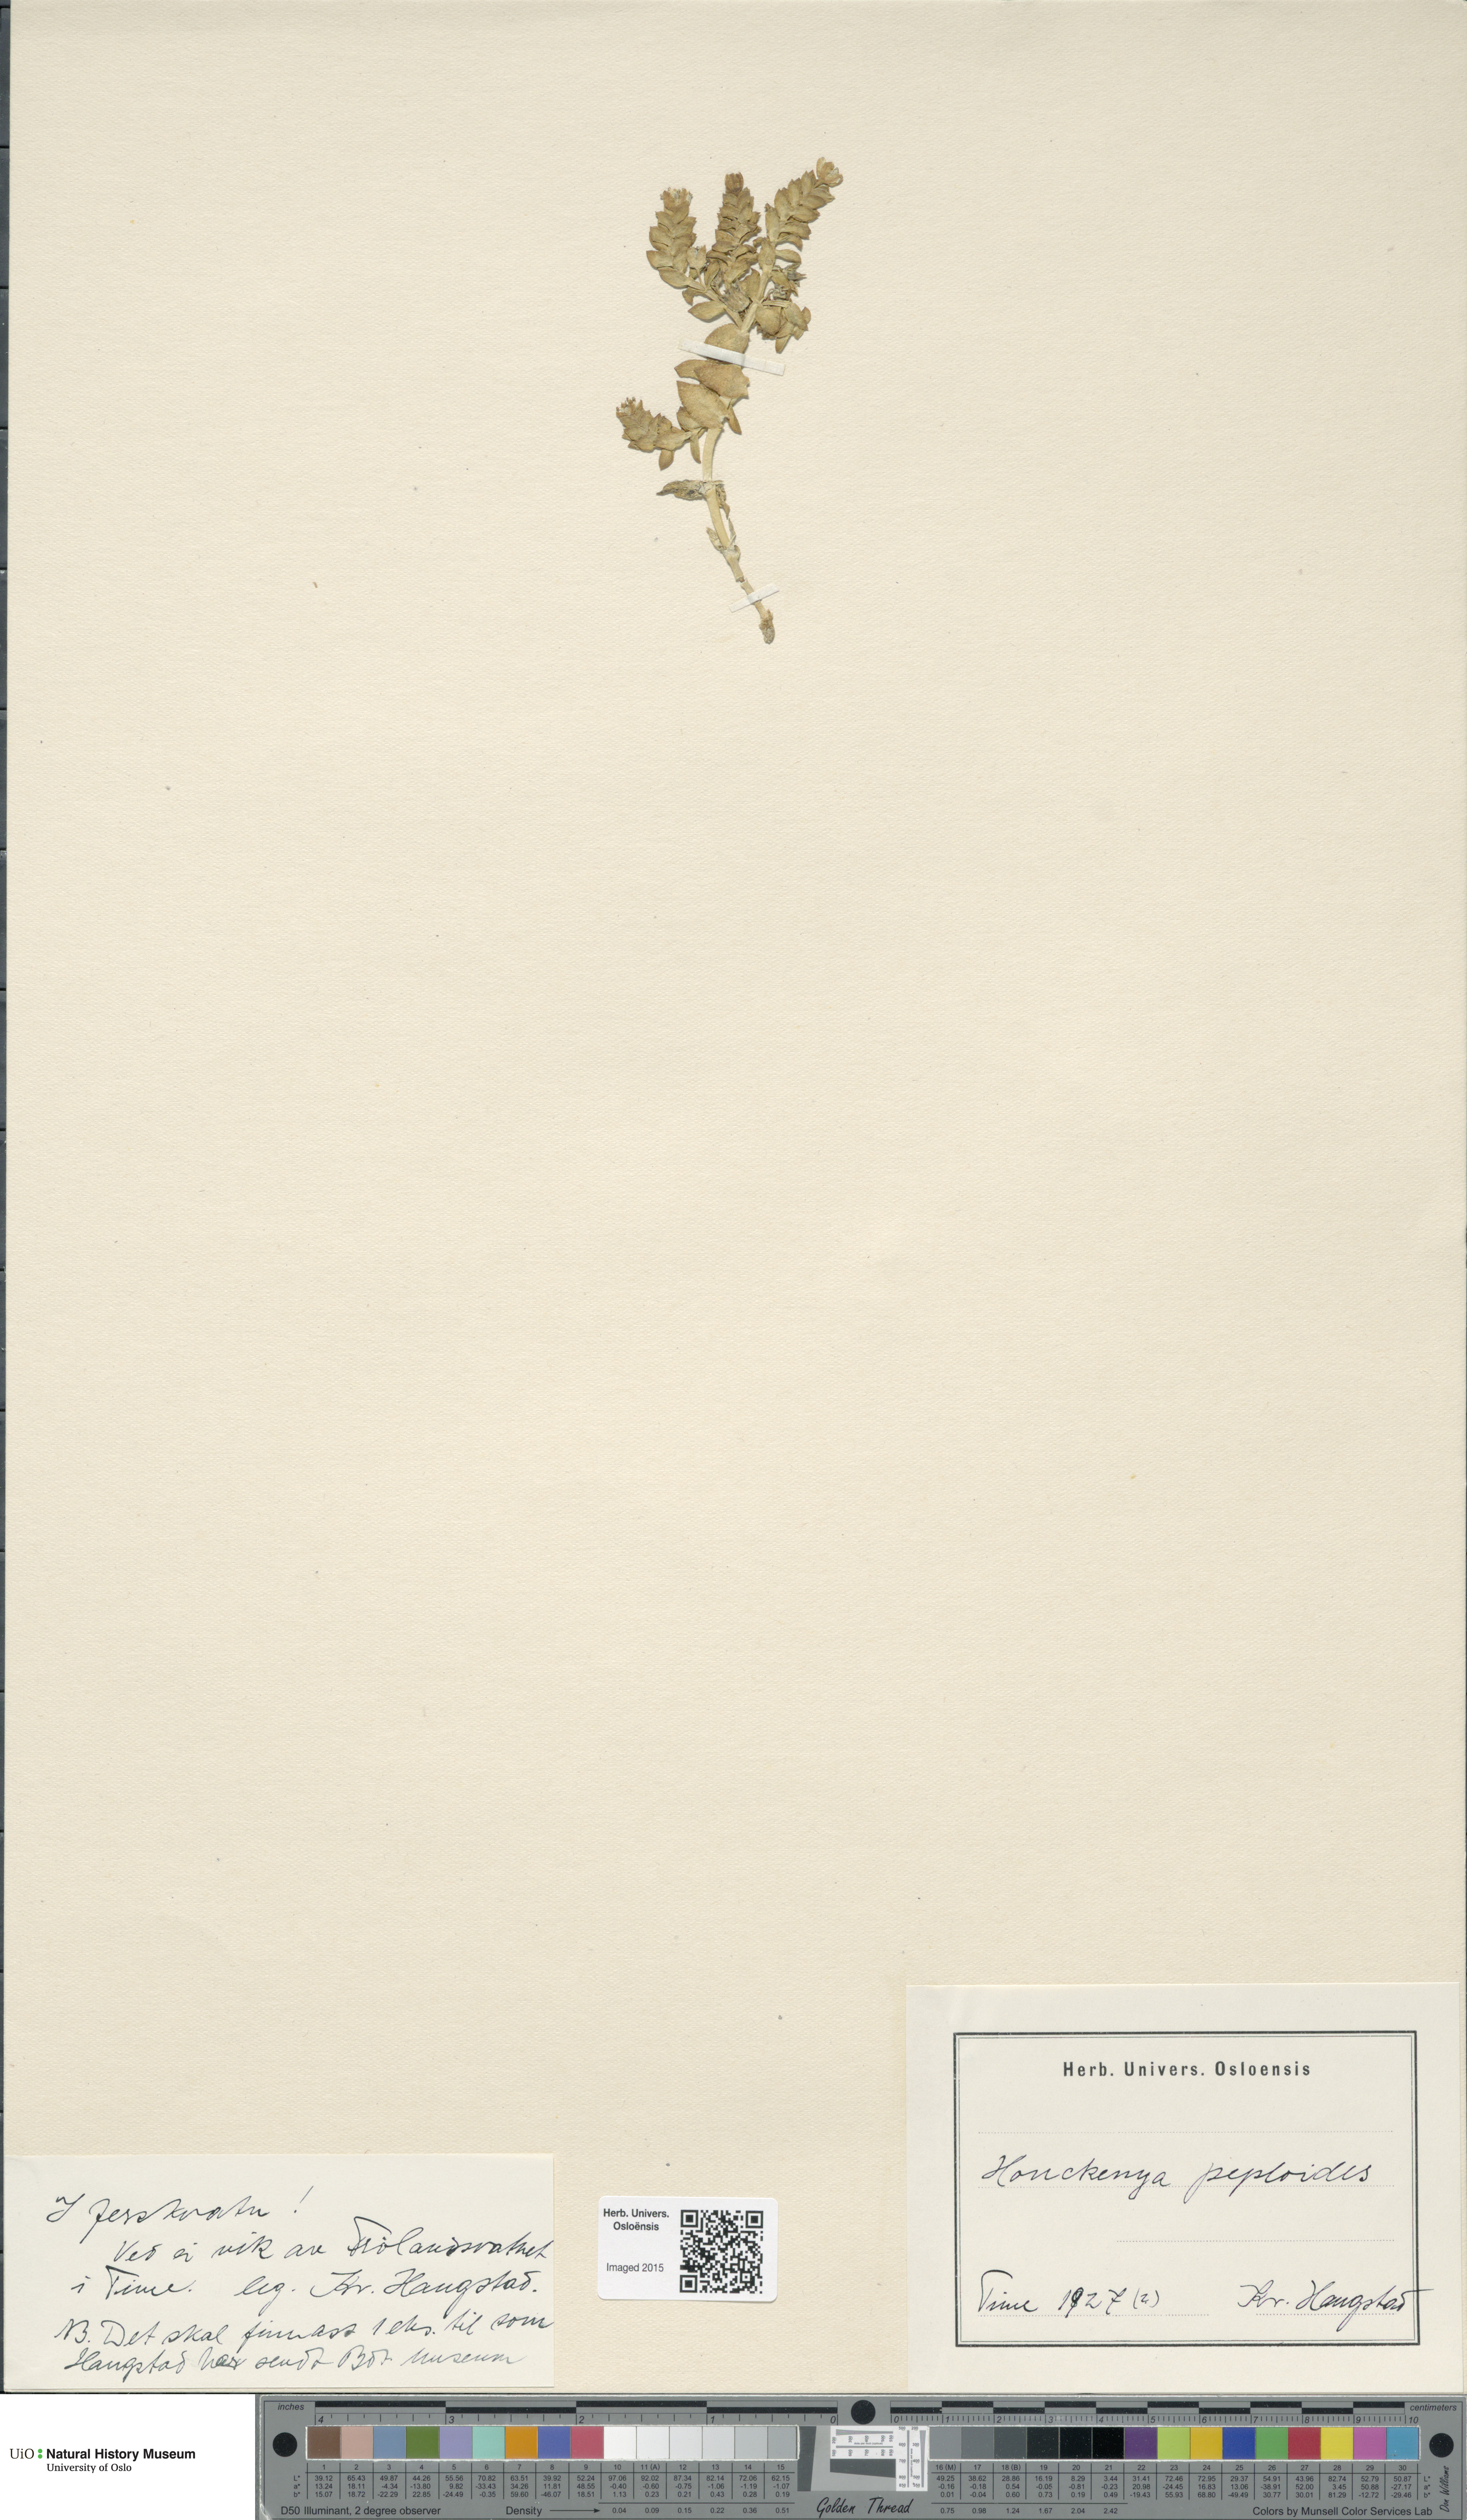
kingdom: Plantae
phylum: Tracheophyta
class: Magnoliopsida
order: Caryophyllales
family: Caryophyllaceae
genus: Honckenya
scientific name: Honckenya peploides
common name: Sea sandwort
